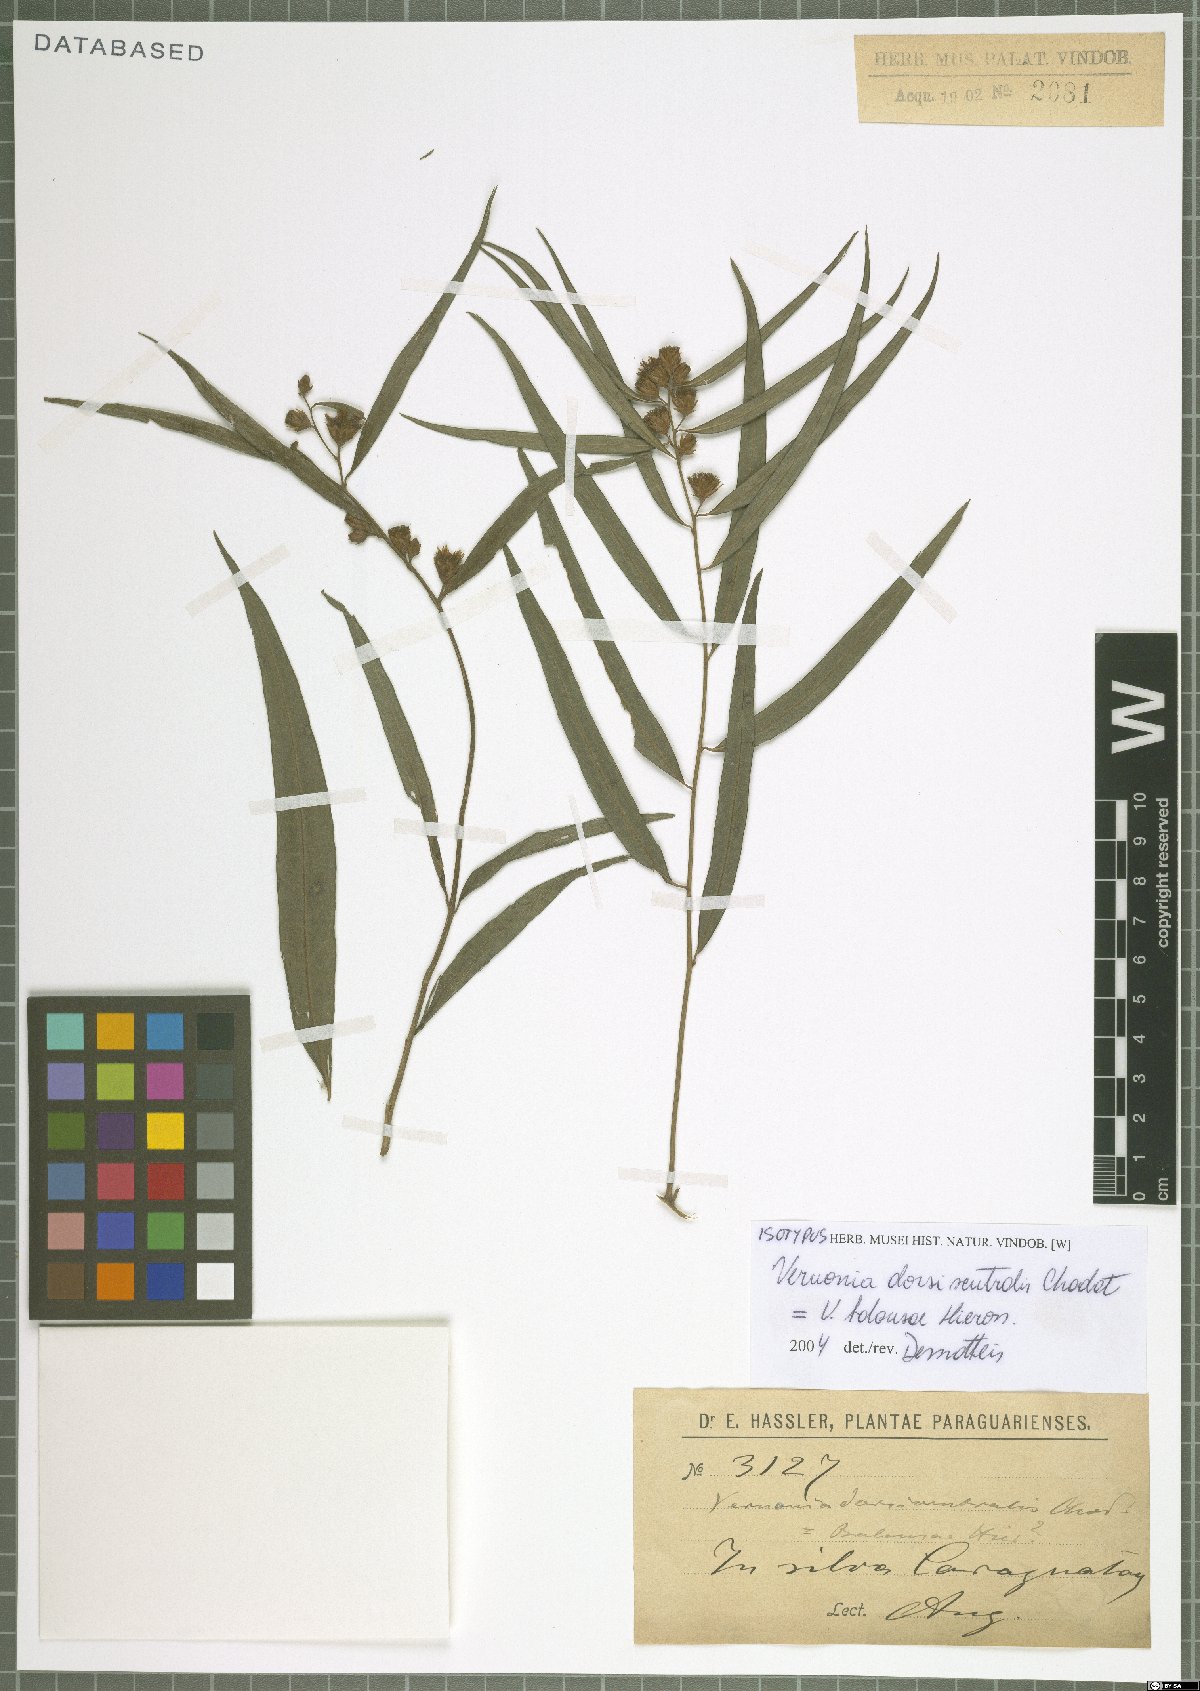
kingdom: Plantae
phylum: Tracheophyta
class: Magnoliopsida
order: Asterales
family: Asteraceae
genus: Lepidaploa
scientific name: Lepidaploa balansae
